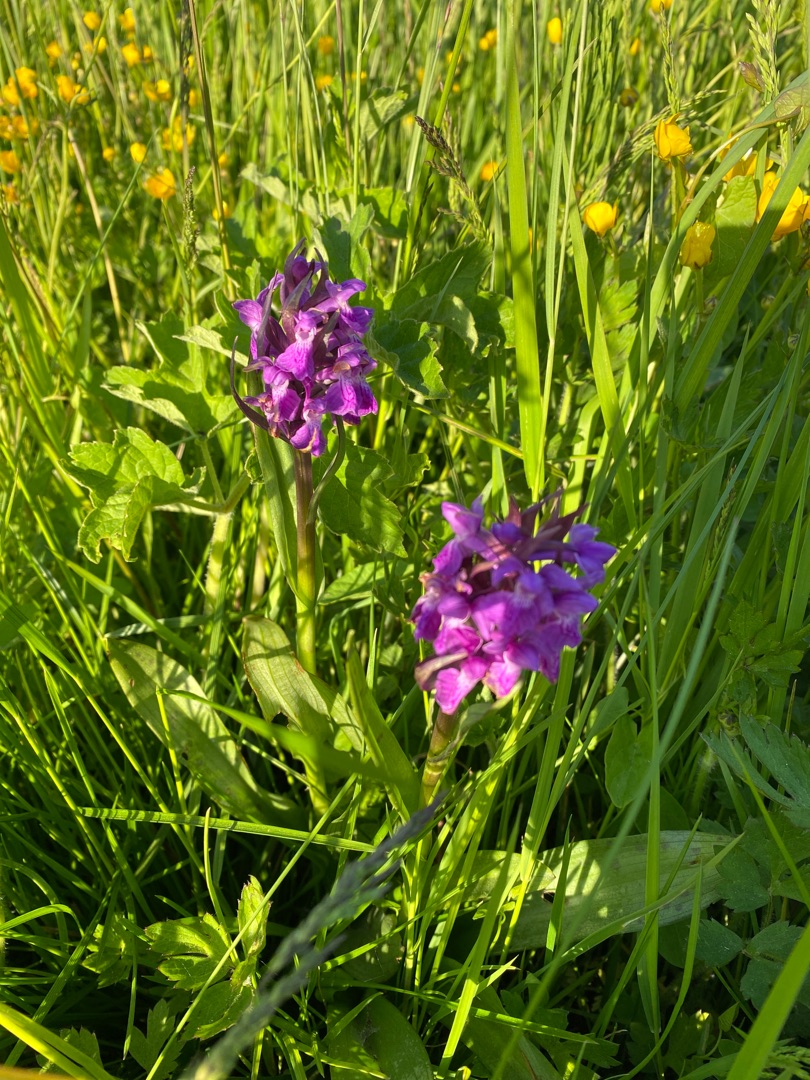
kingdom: Plantae
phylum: Tracheophyta
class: Liliopsida
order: Asparagales
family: Orchidaceae
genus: Dactylorhiza
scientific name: Dactylorhiza majalis
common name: Maj-gøgeurt
